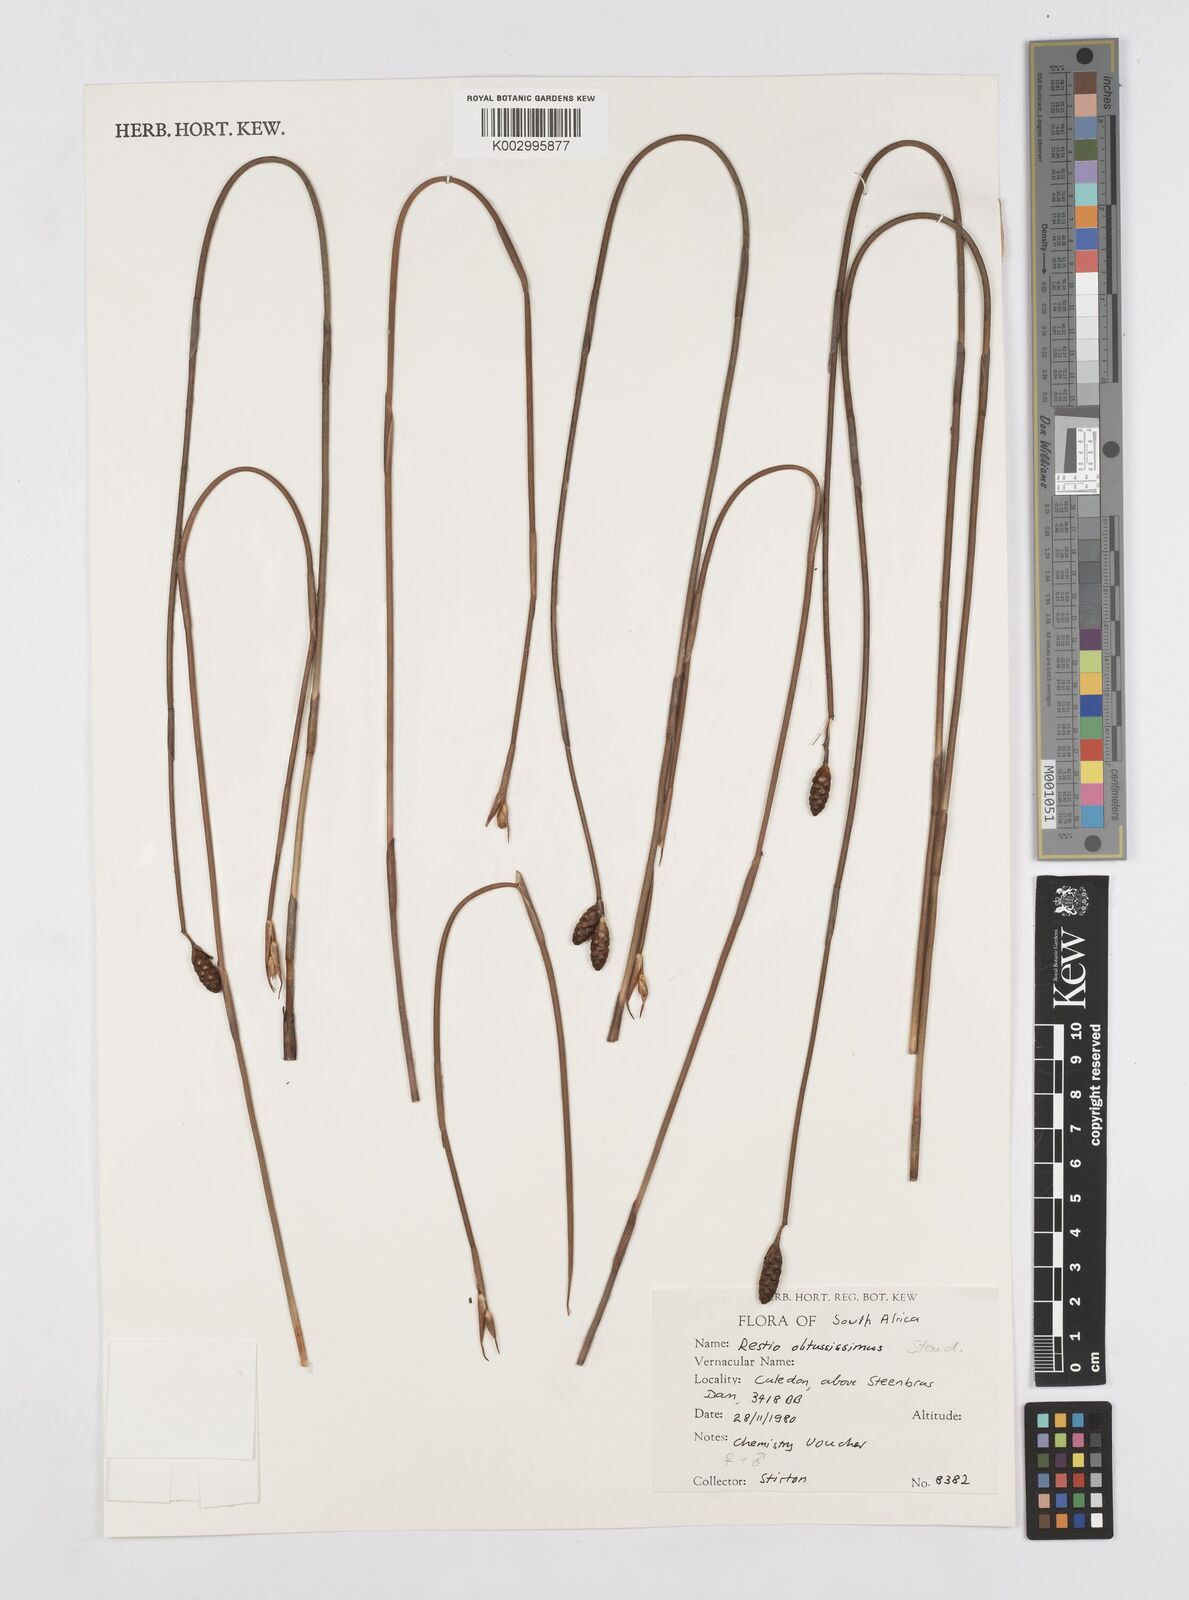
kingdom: Plantae
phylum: Tracheophyta
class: Liliopsida
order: Poales
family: Restionaceae
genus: Nevillea
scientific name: Nevillea obtusissimus
